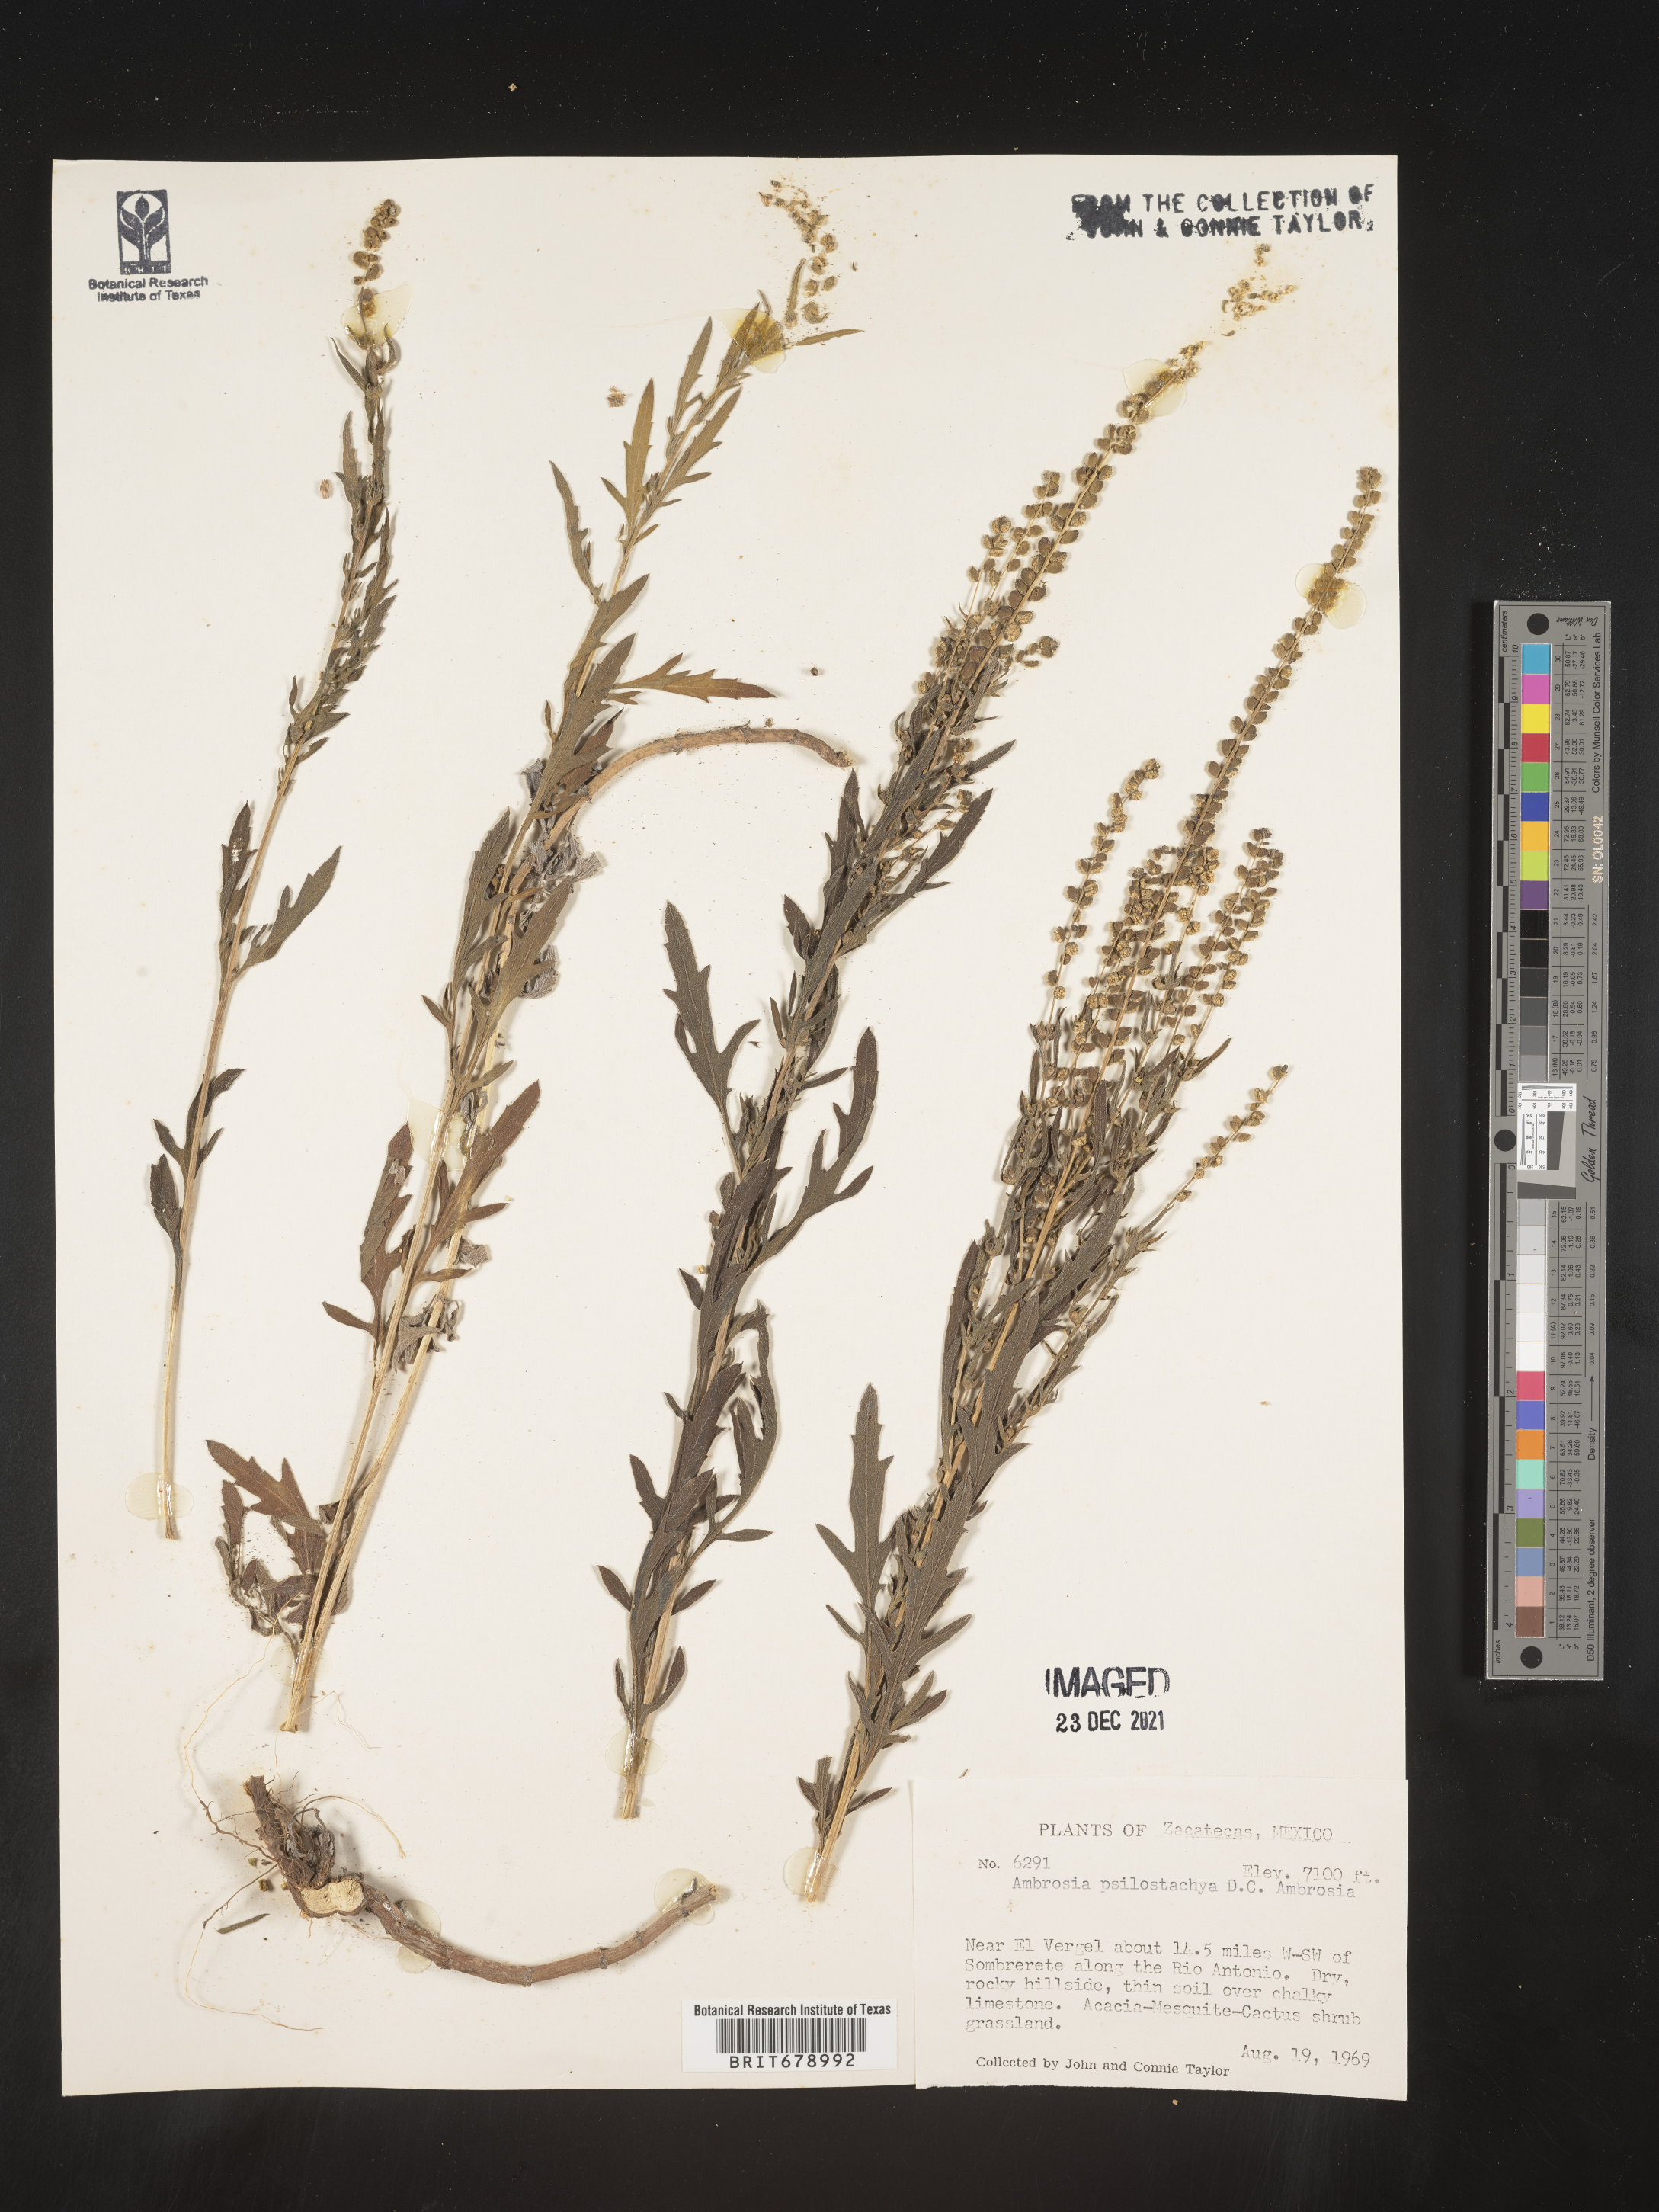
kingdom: Plantae
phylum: Tracheophyta
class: Magnoliopsida
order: Asterales
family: Asteraceae
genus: Ambrosia
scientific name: Ambrosia
